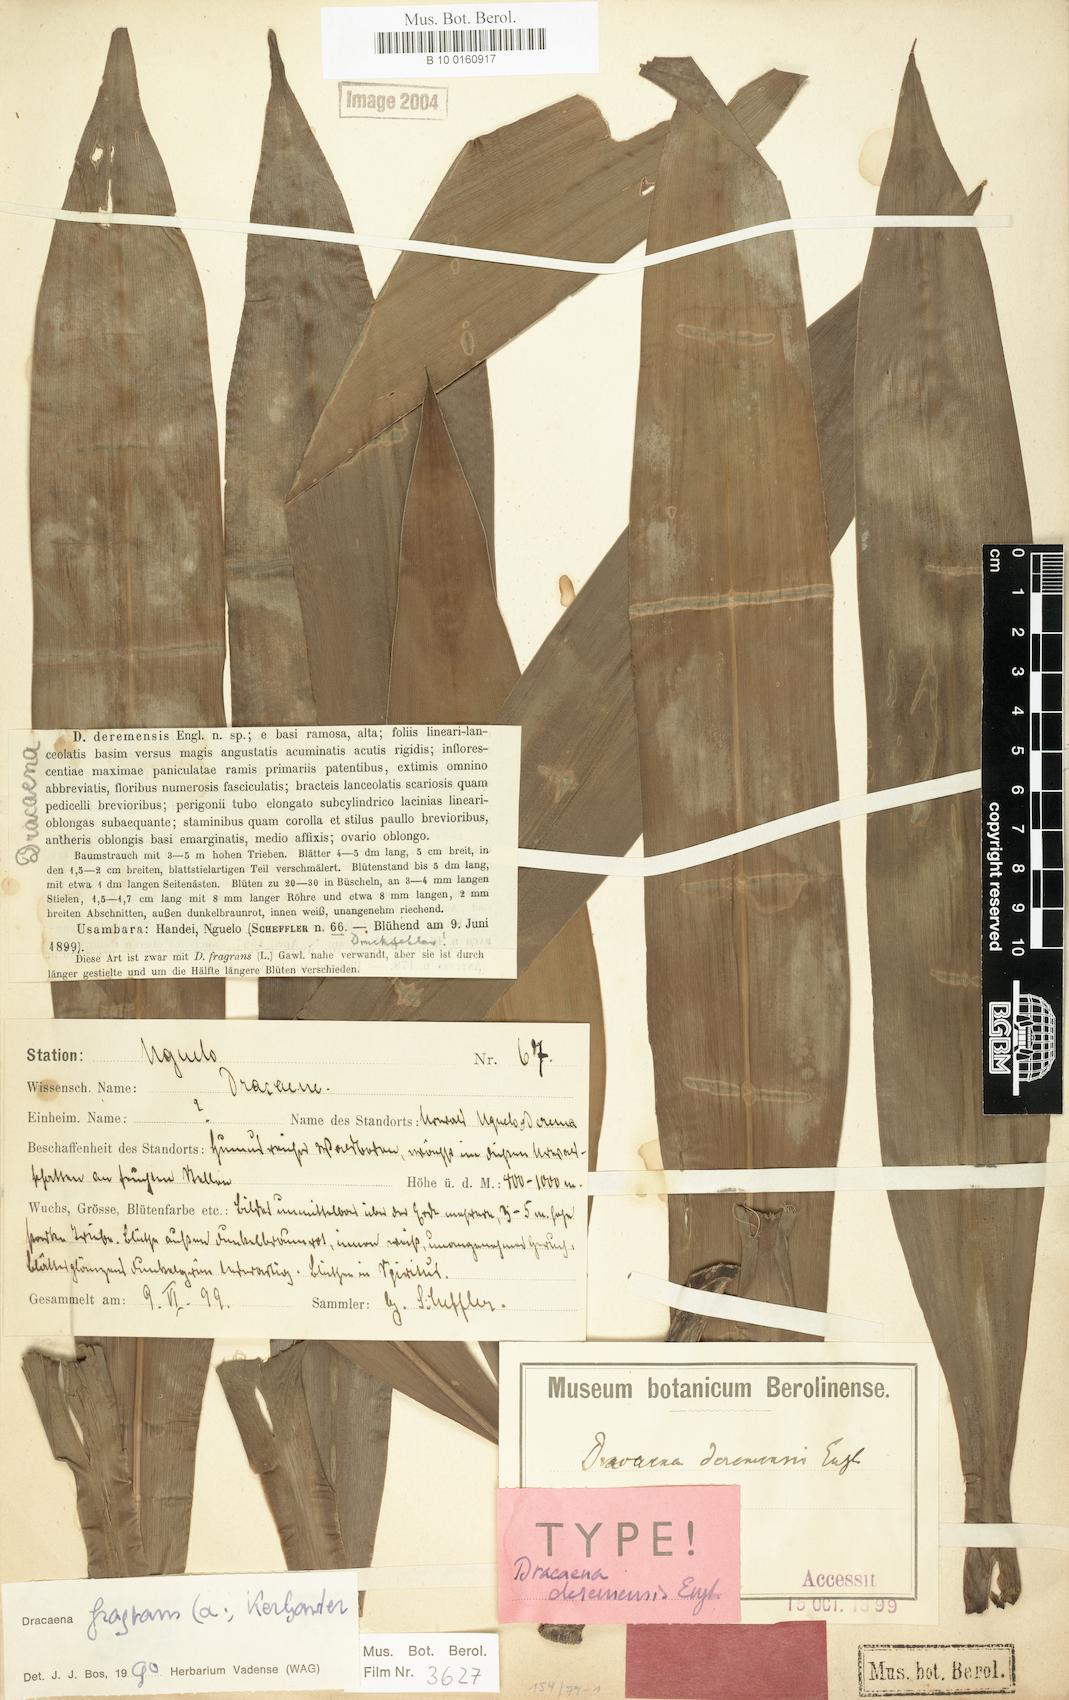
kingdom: Plantae
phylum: Tracheophyta
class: Liliopsida
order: Asparagales
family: Asparagaceae
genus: Dracaena
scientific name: Dracaena fragrans
